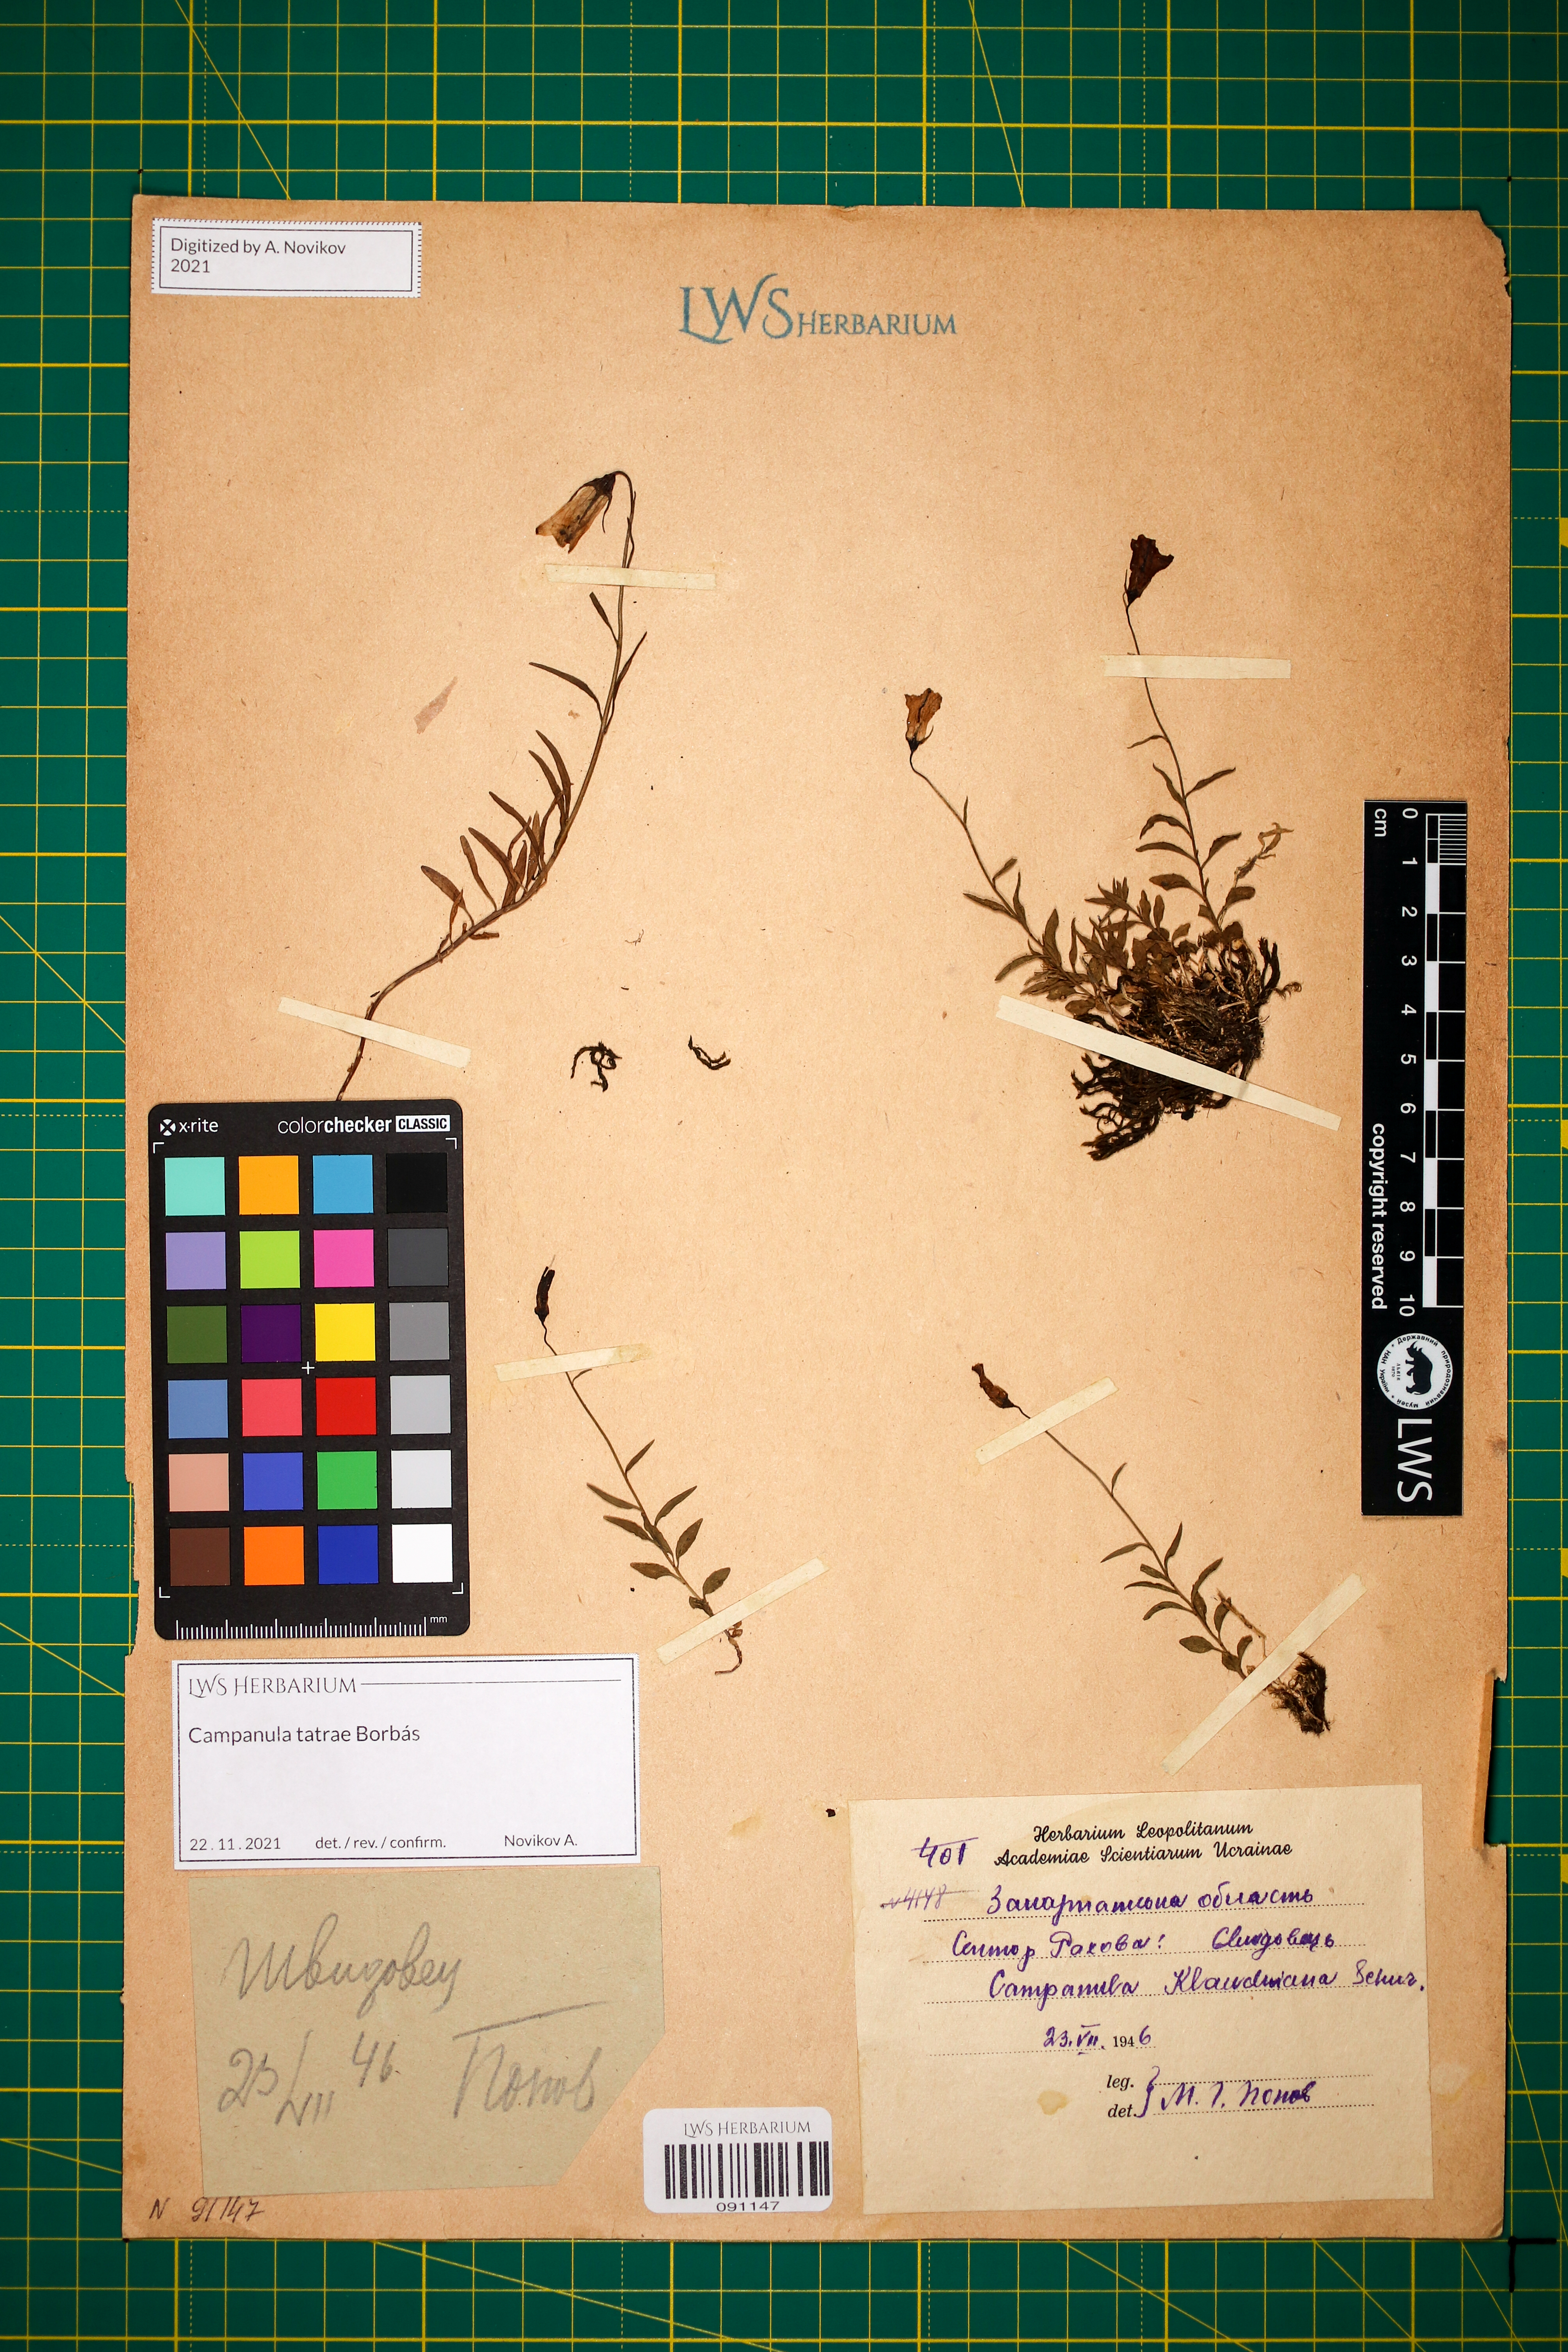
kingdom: Plantae
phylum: Tracheophyta
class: Magnoliopsida
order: Asterales
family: Campanulaceae
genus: Campanula
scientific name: Campanula kladniana
